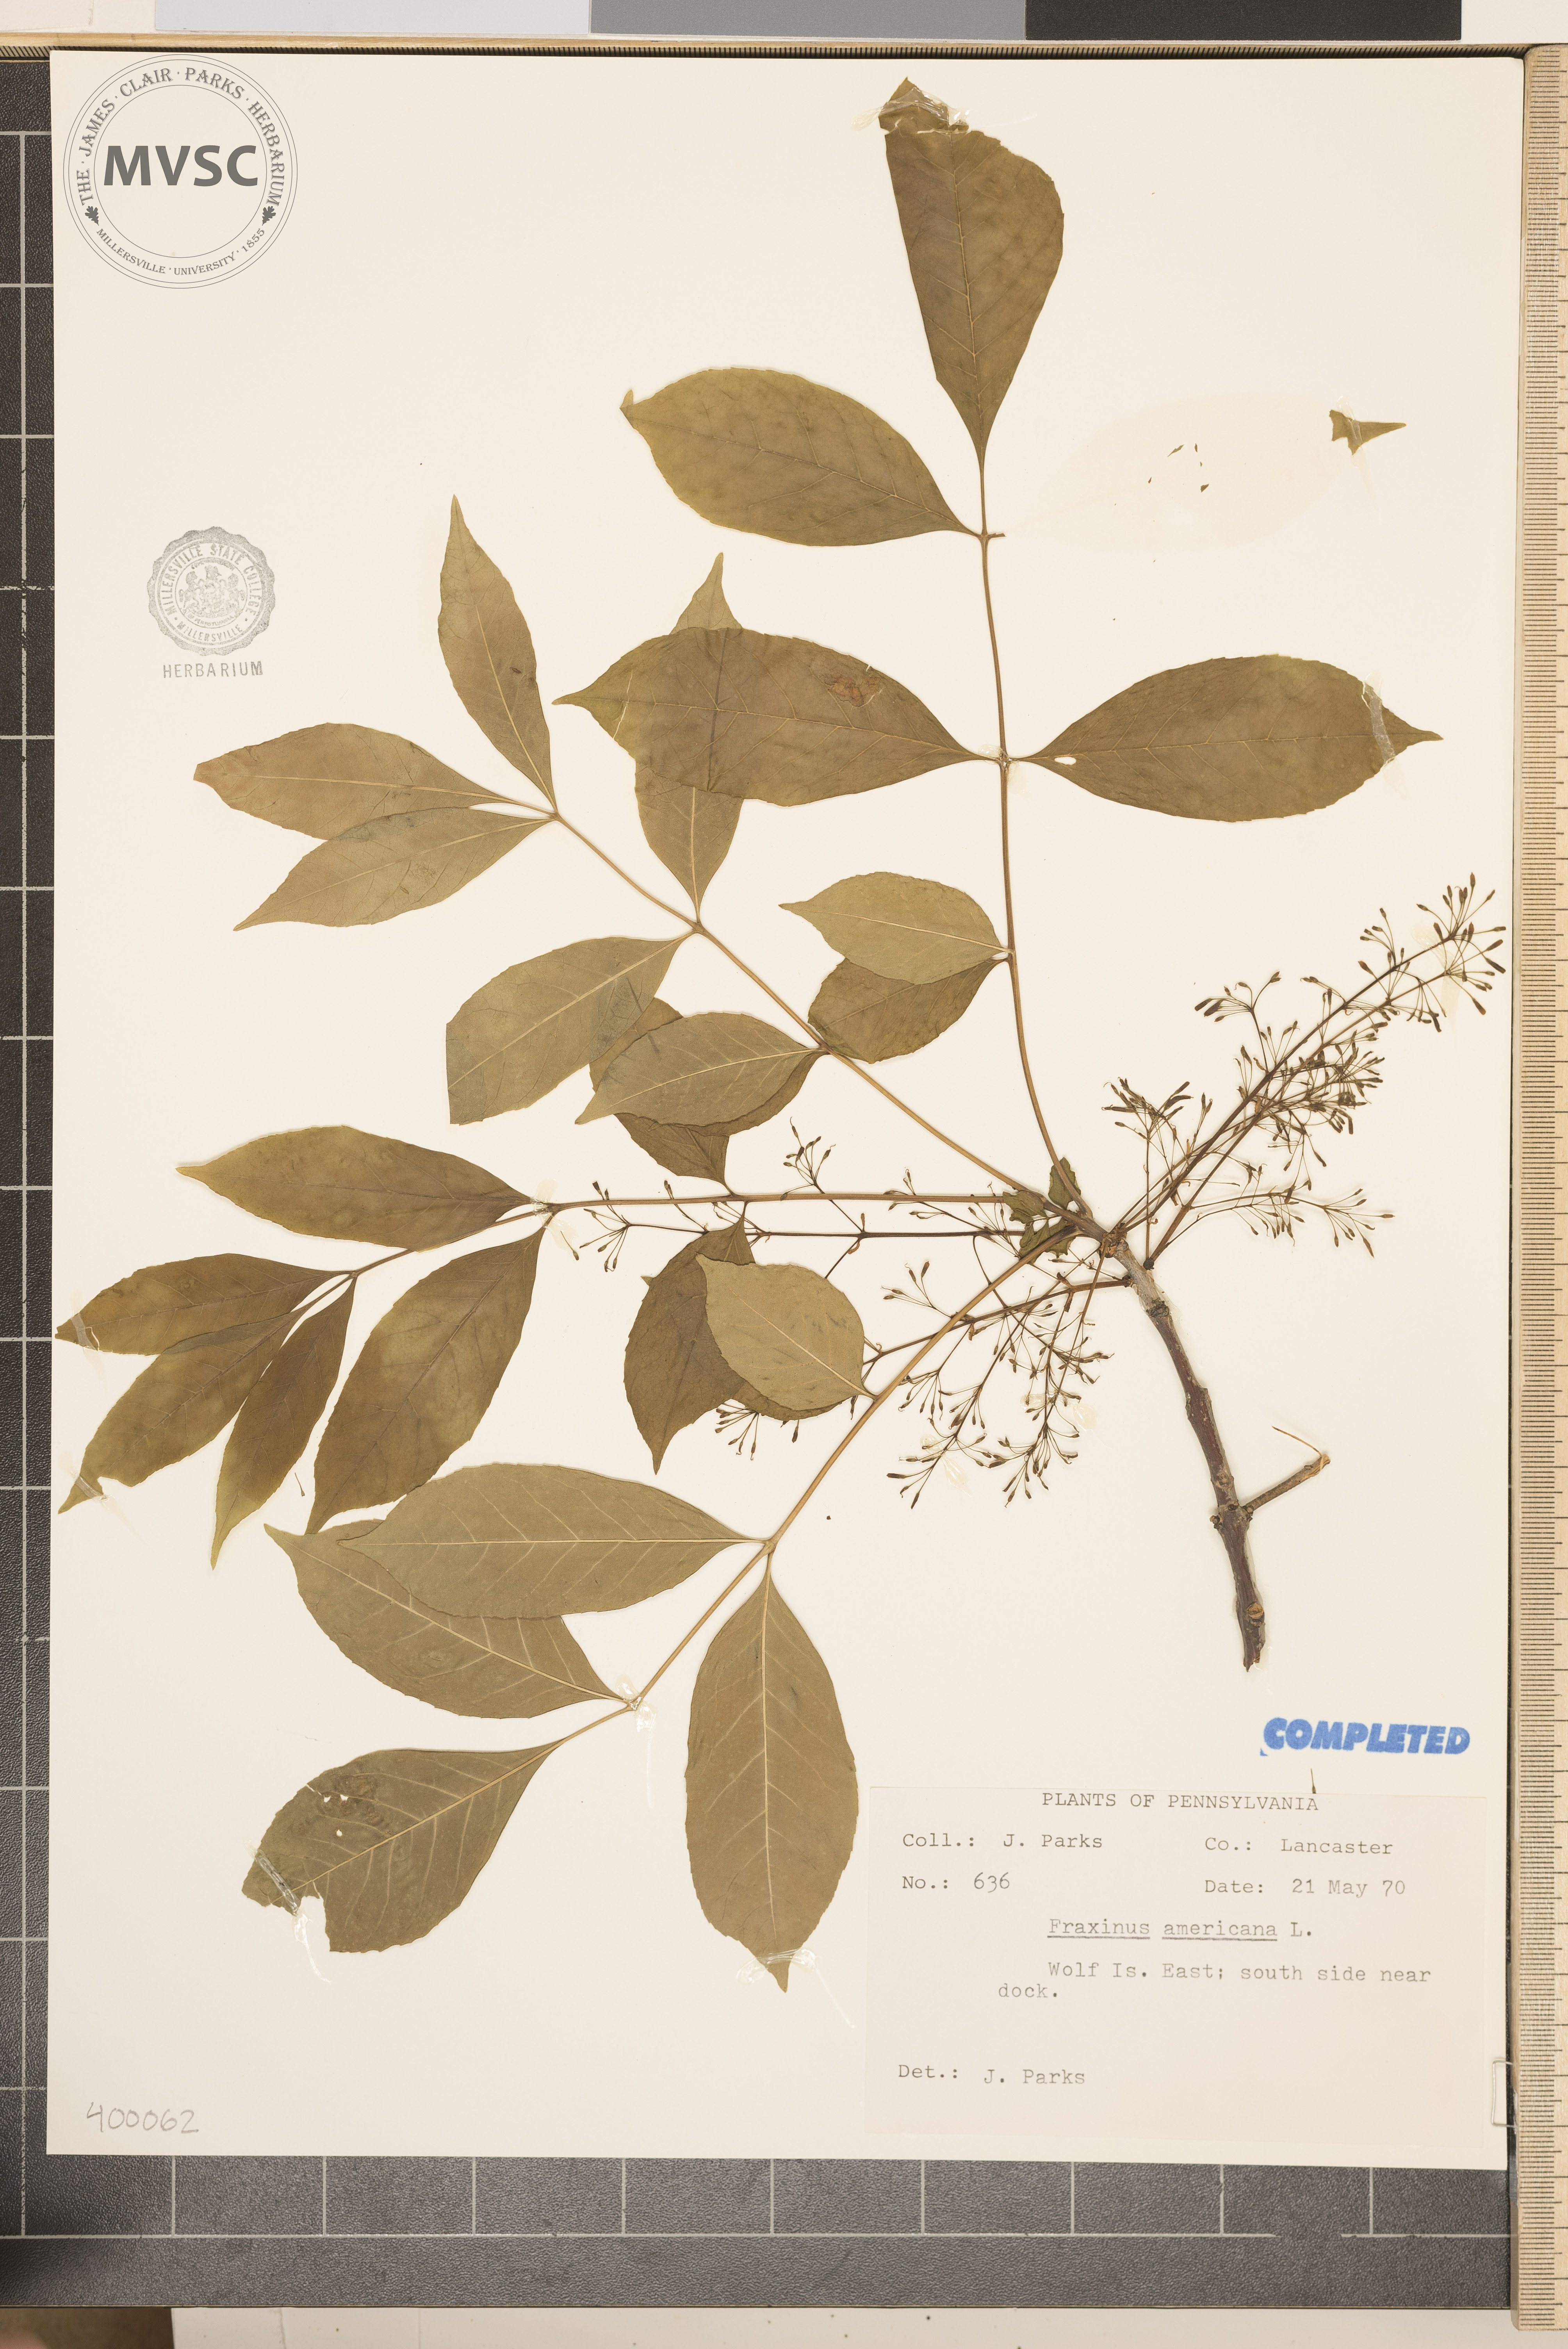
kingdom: Plantae
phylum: Tracheophyta
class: Magnoliopsida
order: Lamiales
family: Oleaceae
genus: Fraxinus
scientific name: Fraxinus americana
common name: White ash
